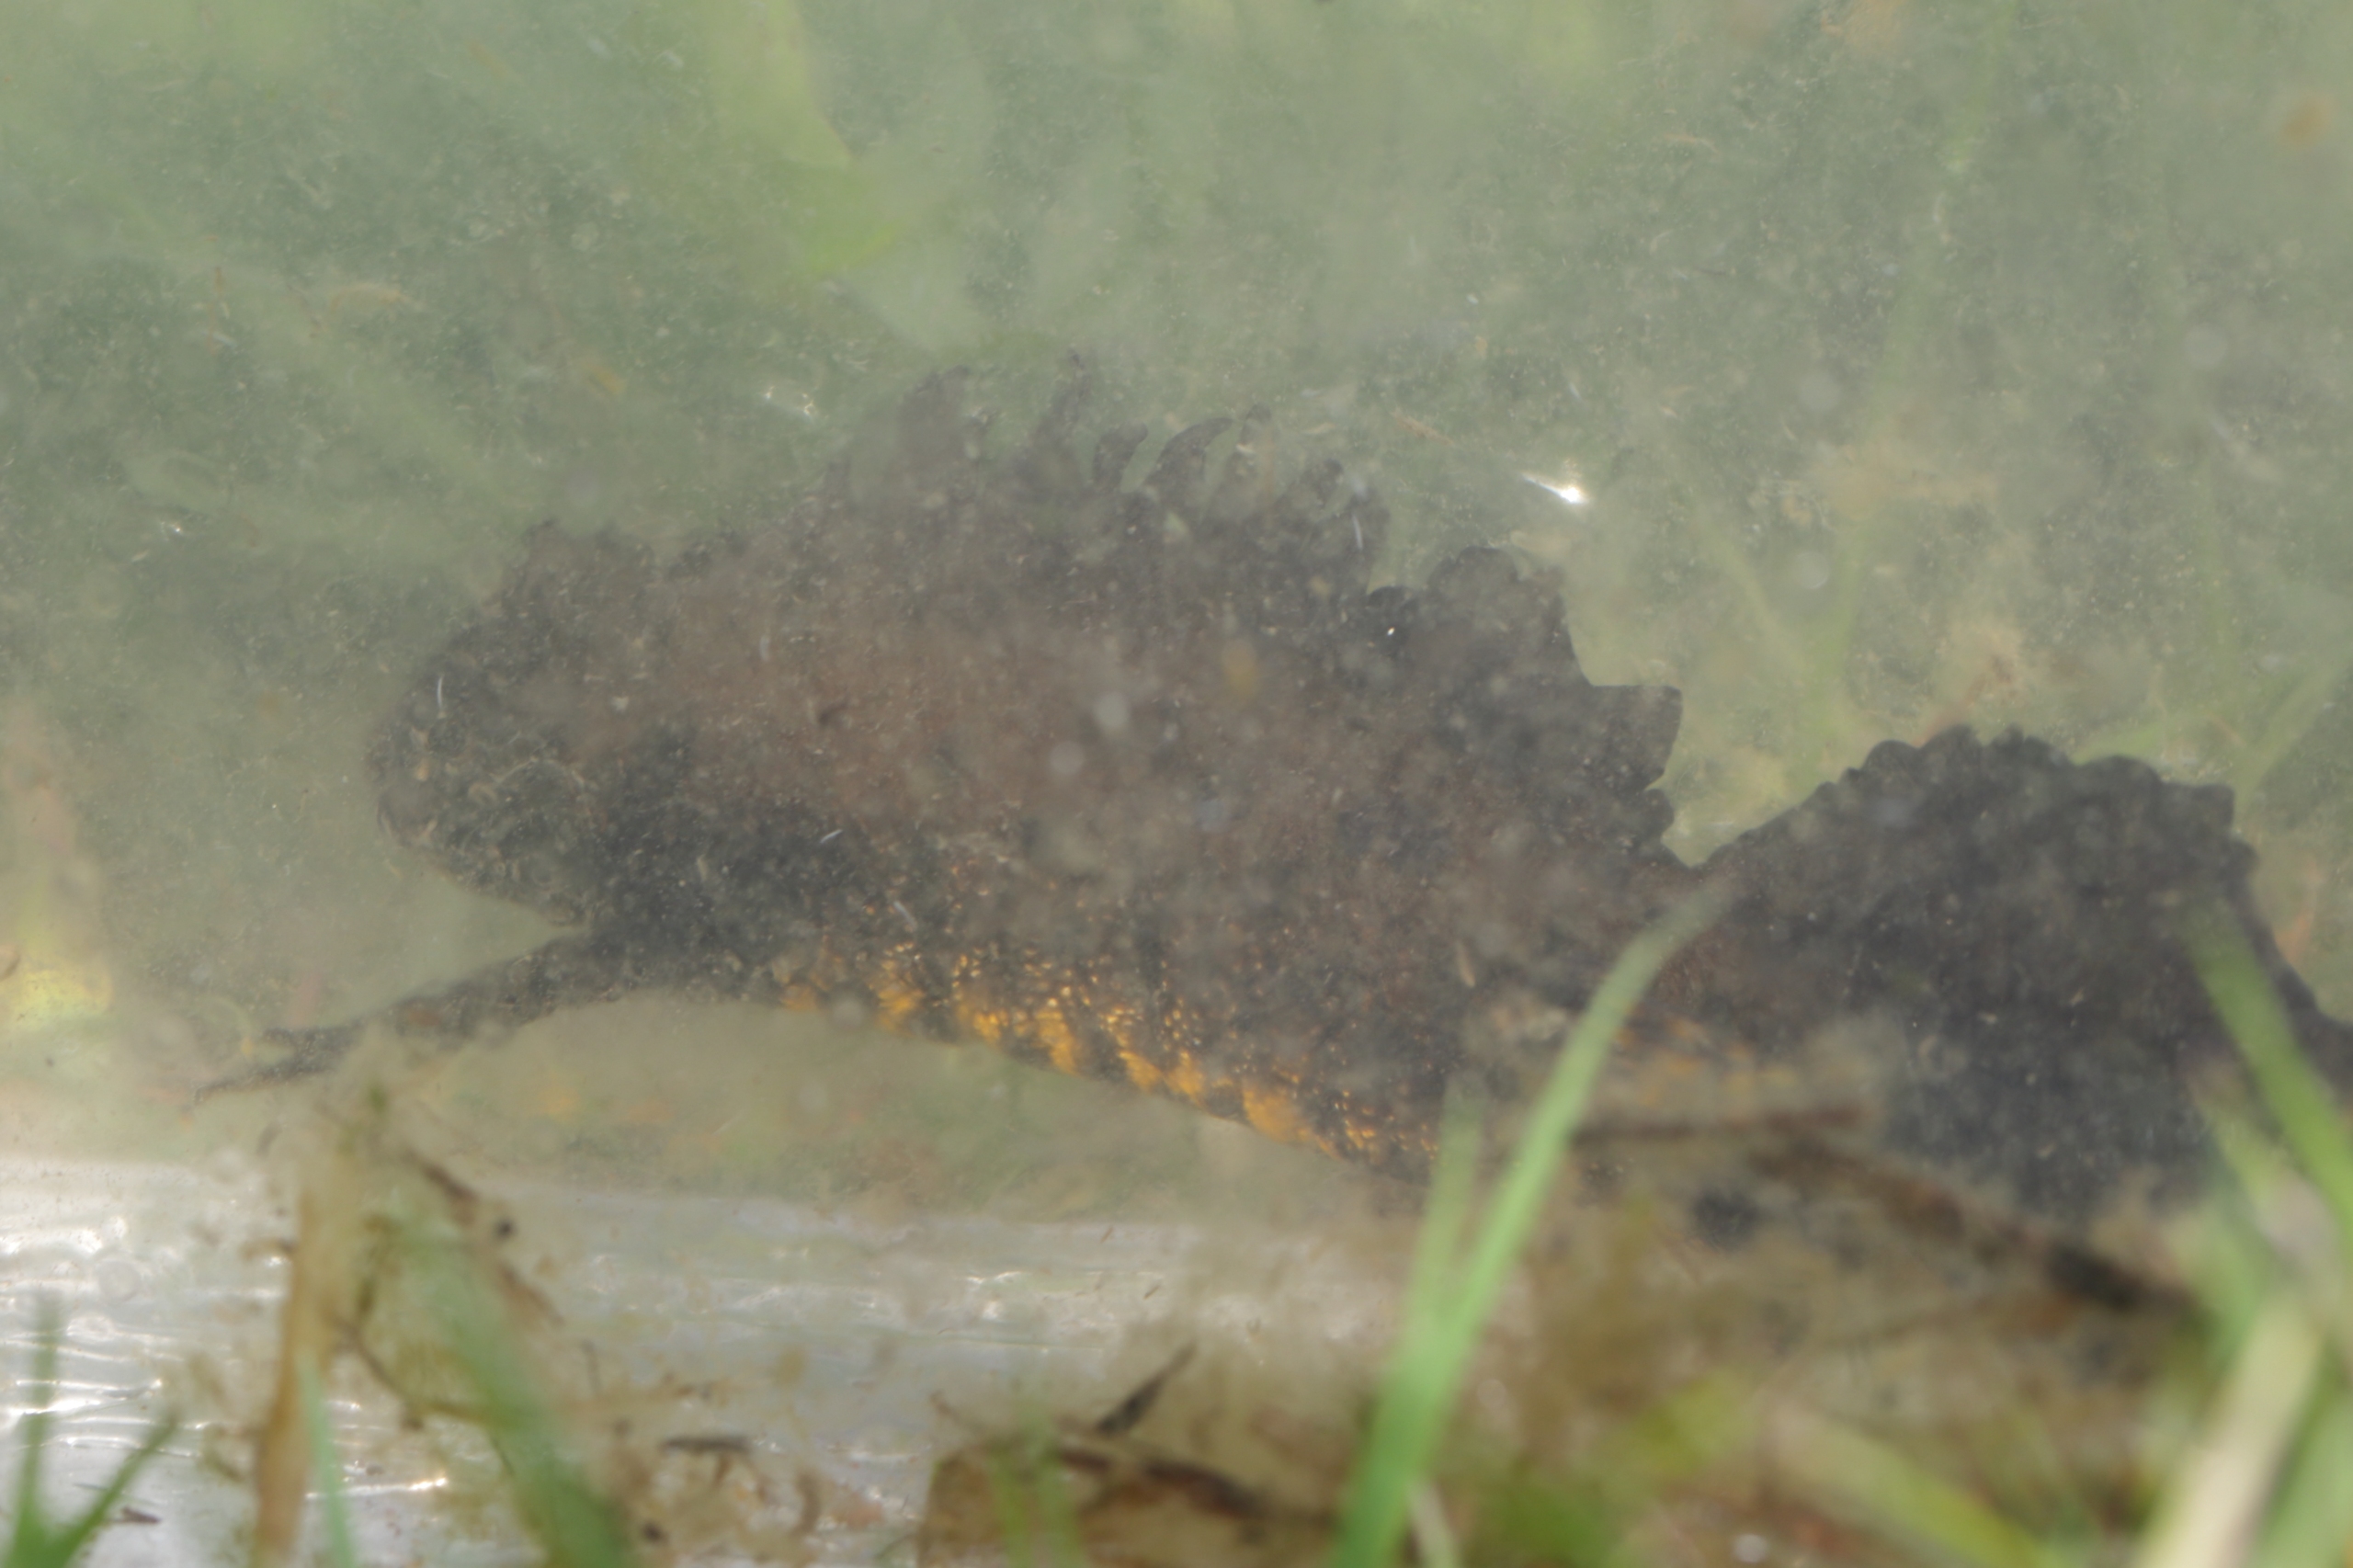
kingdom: Animalia
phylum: Chordata
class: Amphibia
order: Caudata
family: Salamandridae
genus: Triturus
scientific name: Triturus cristatus
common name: Stor vandsalamander
